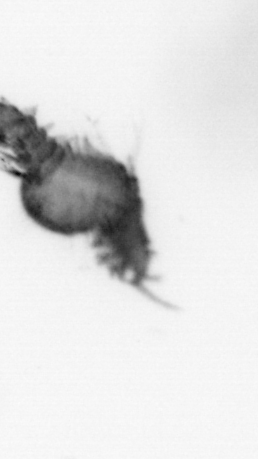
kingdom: Animalia
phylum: Annelida
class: Polychaeta
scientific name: Polychaeta
